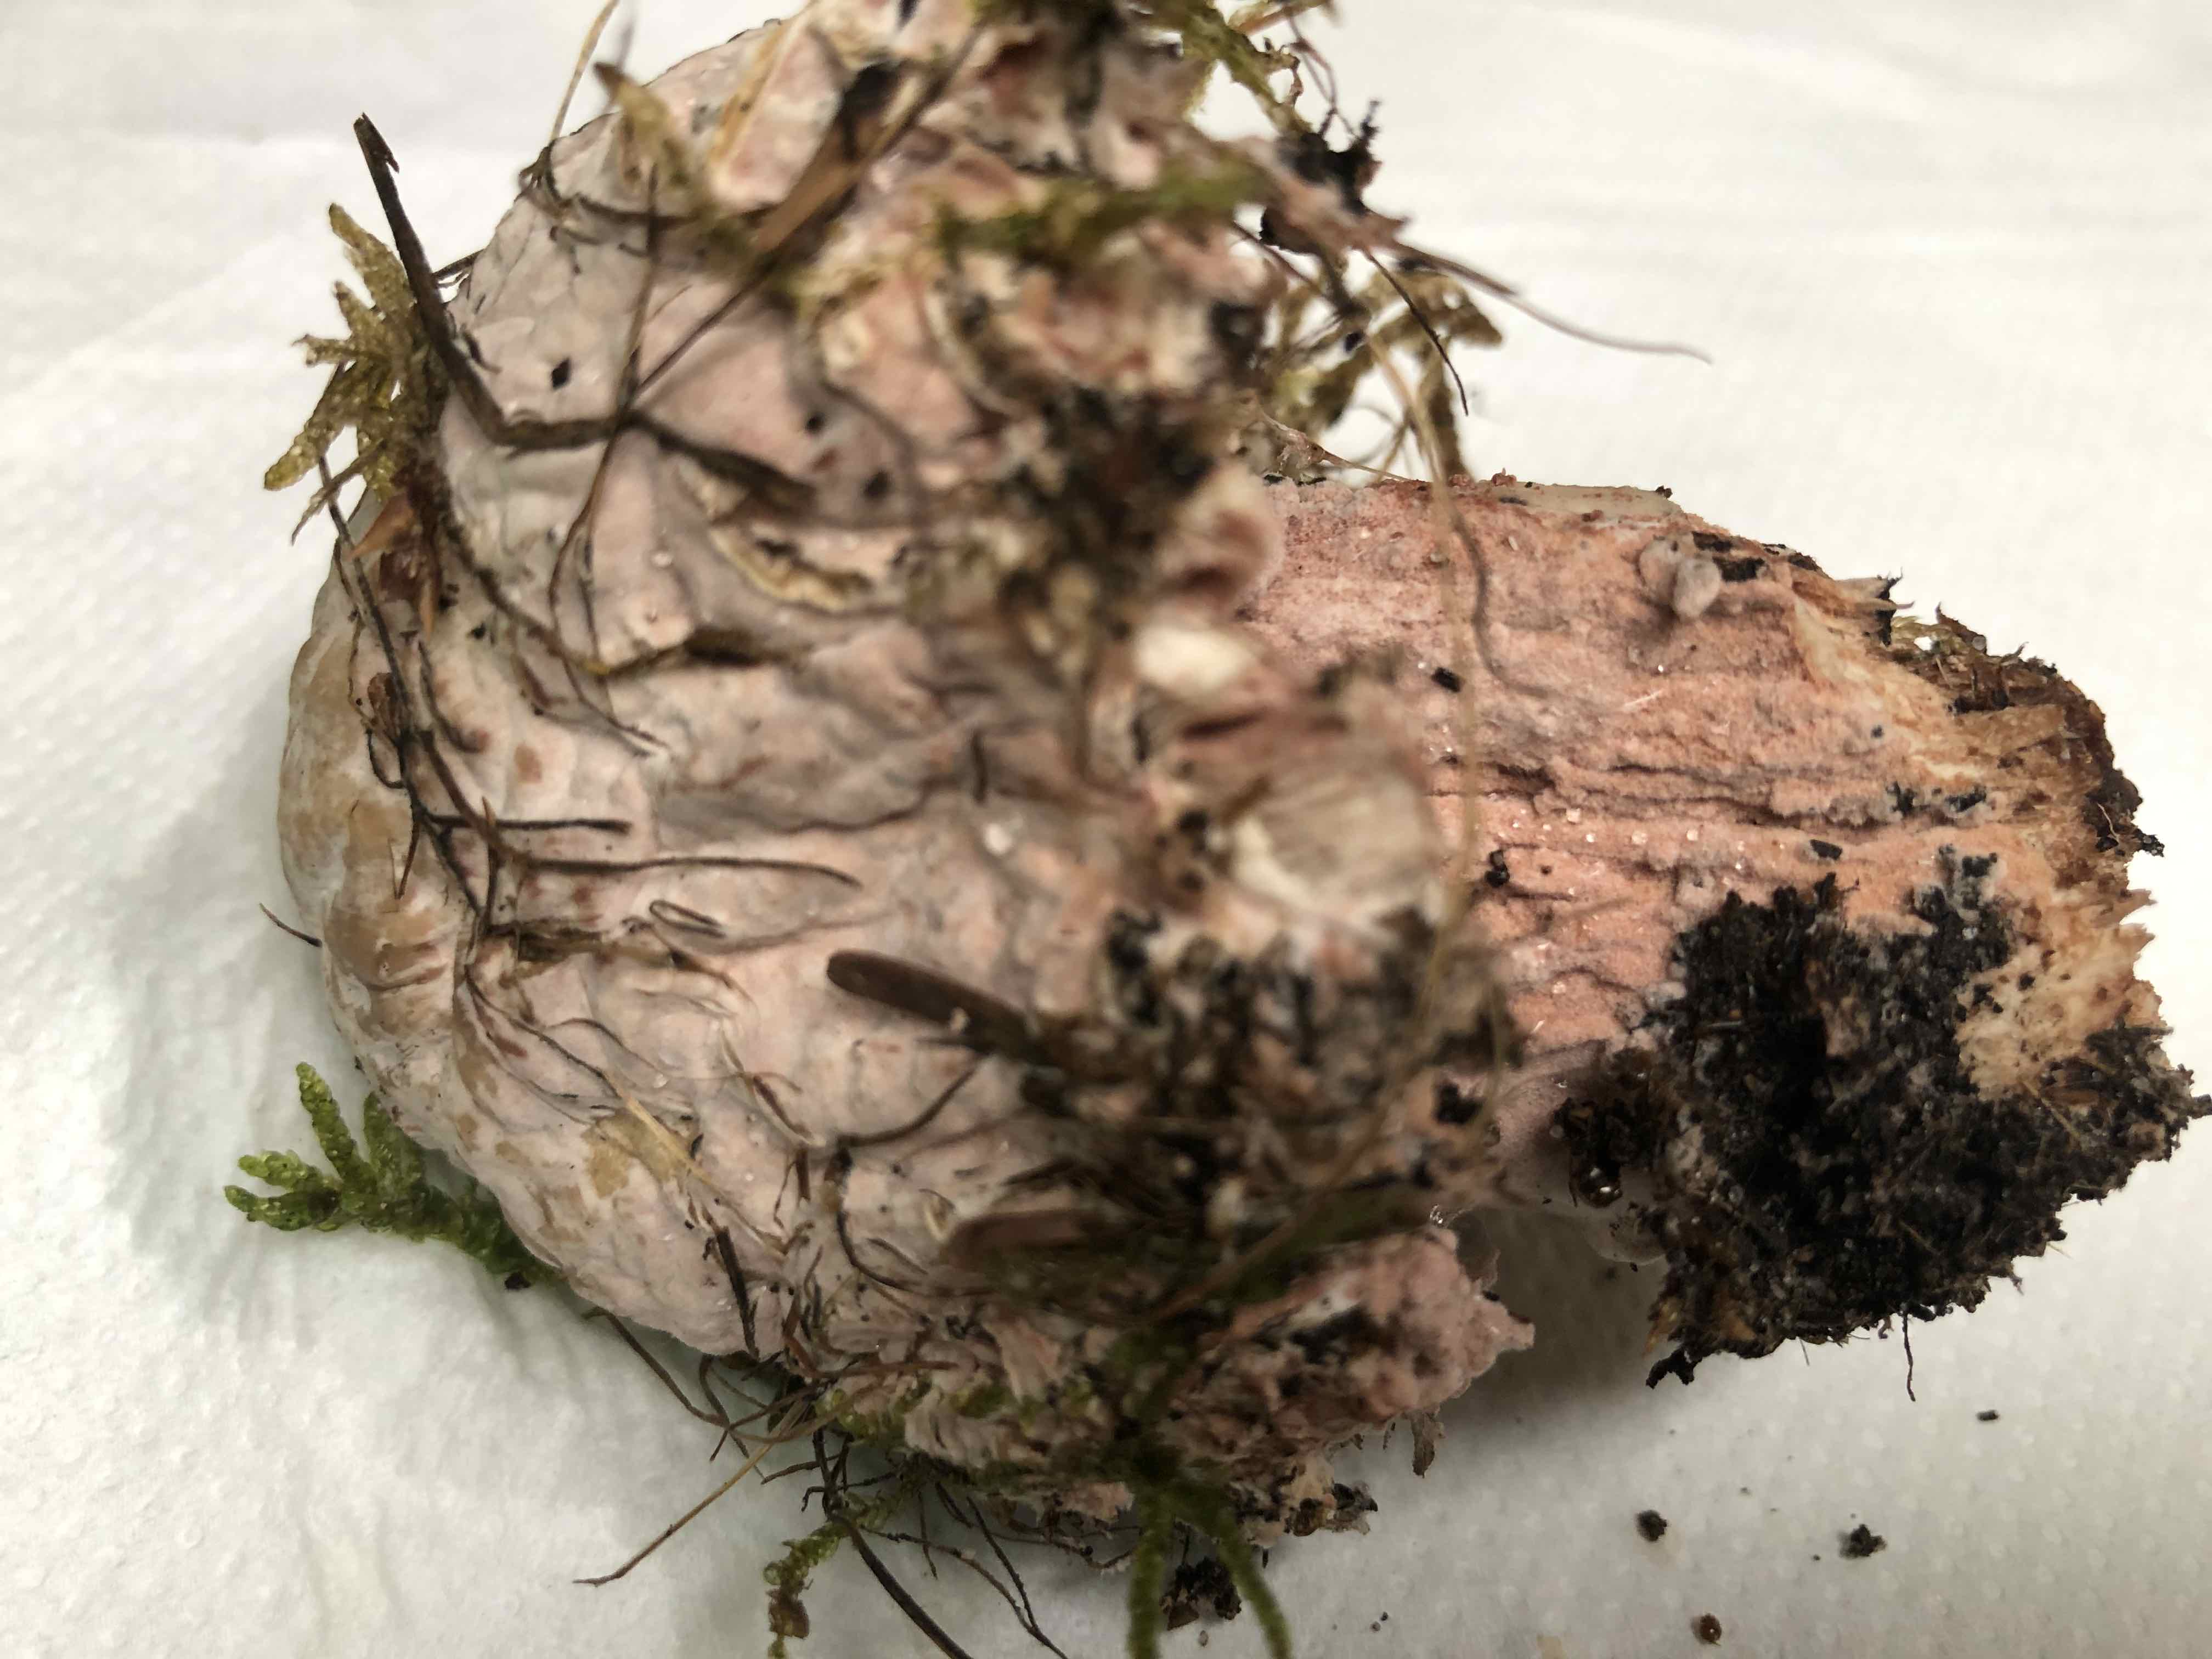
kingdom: Fungi
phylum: Ascomycota
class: Sordariomycetes
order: Hypocreales
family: Hypocreaceae
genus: Mycogone
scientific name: Mycogone rosea
